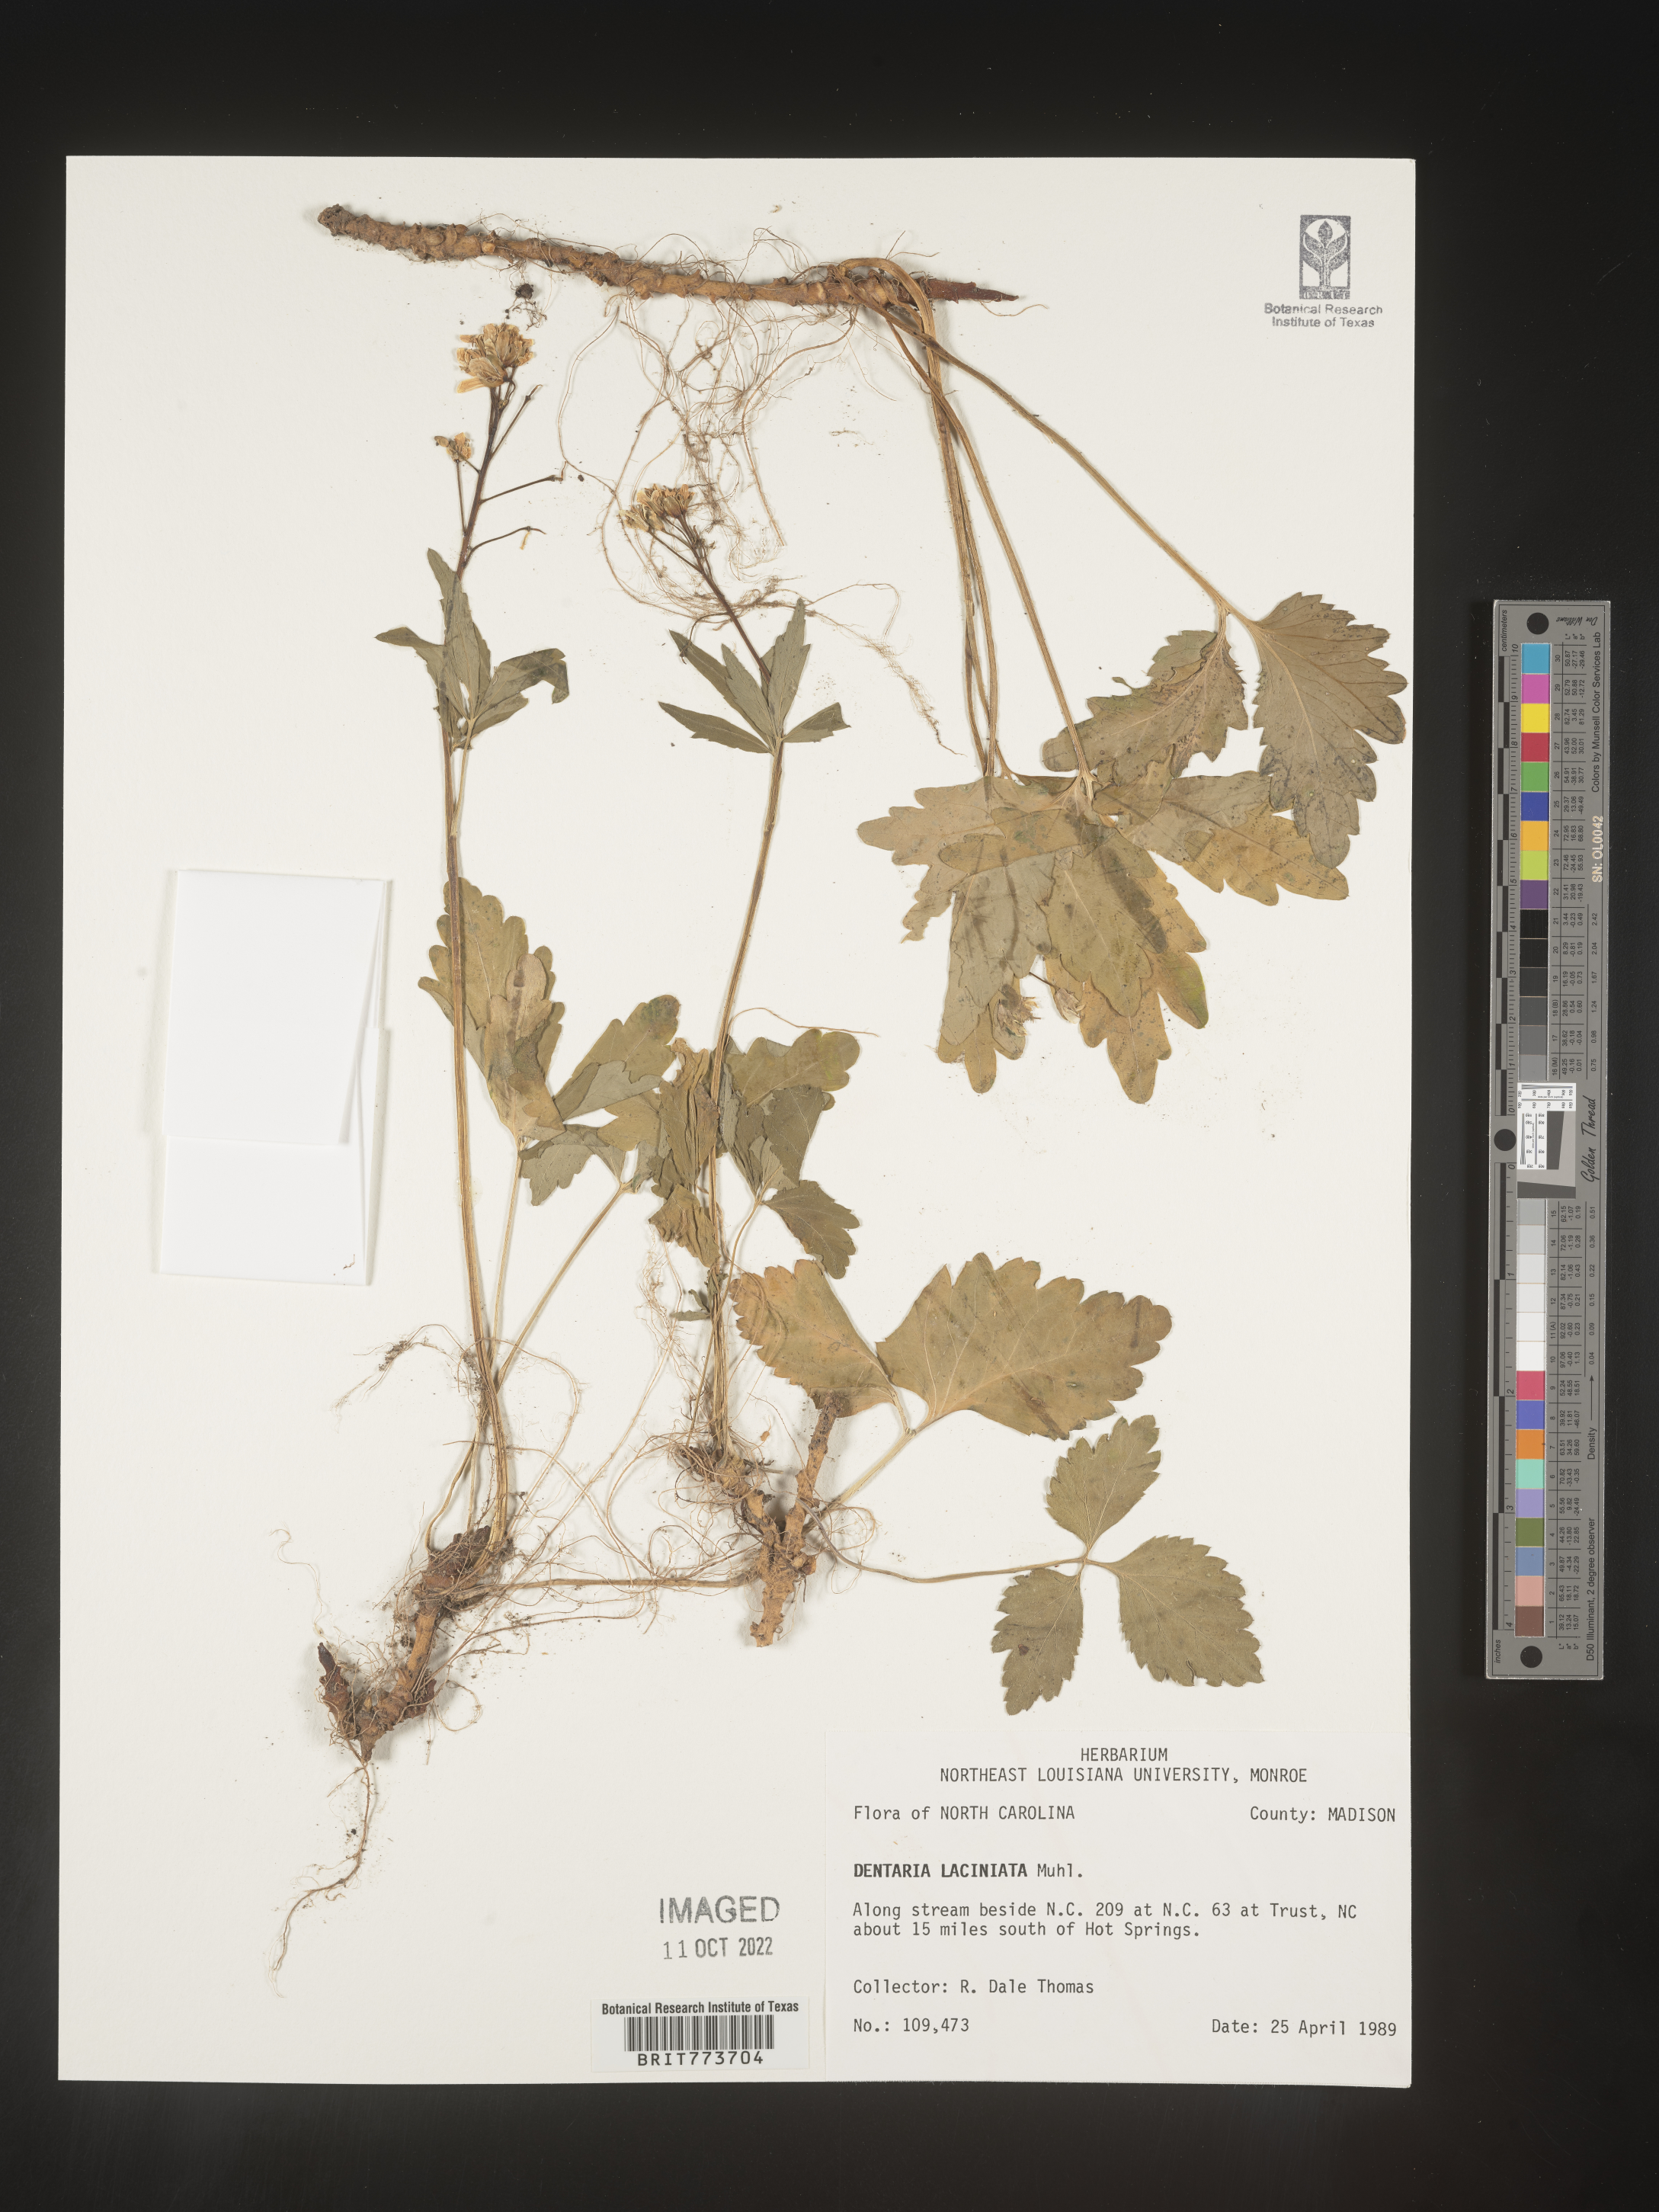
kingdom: Plantae
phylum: Tracheophyta
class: Magnoliopsida
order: Brassicales
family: Brassicaceae
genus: Rorippa
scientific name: Rorippa laciniata
